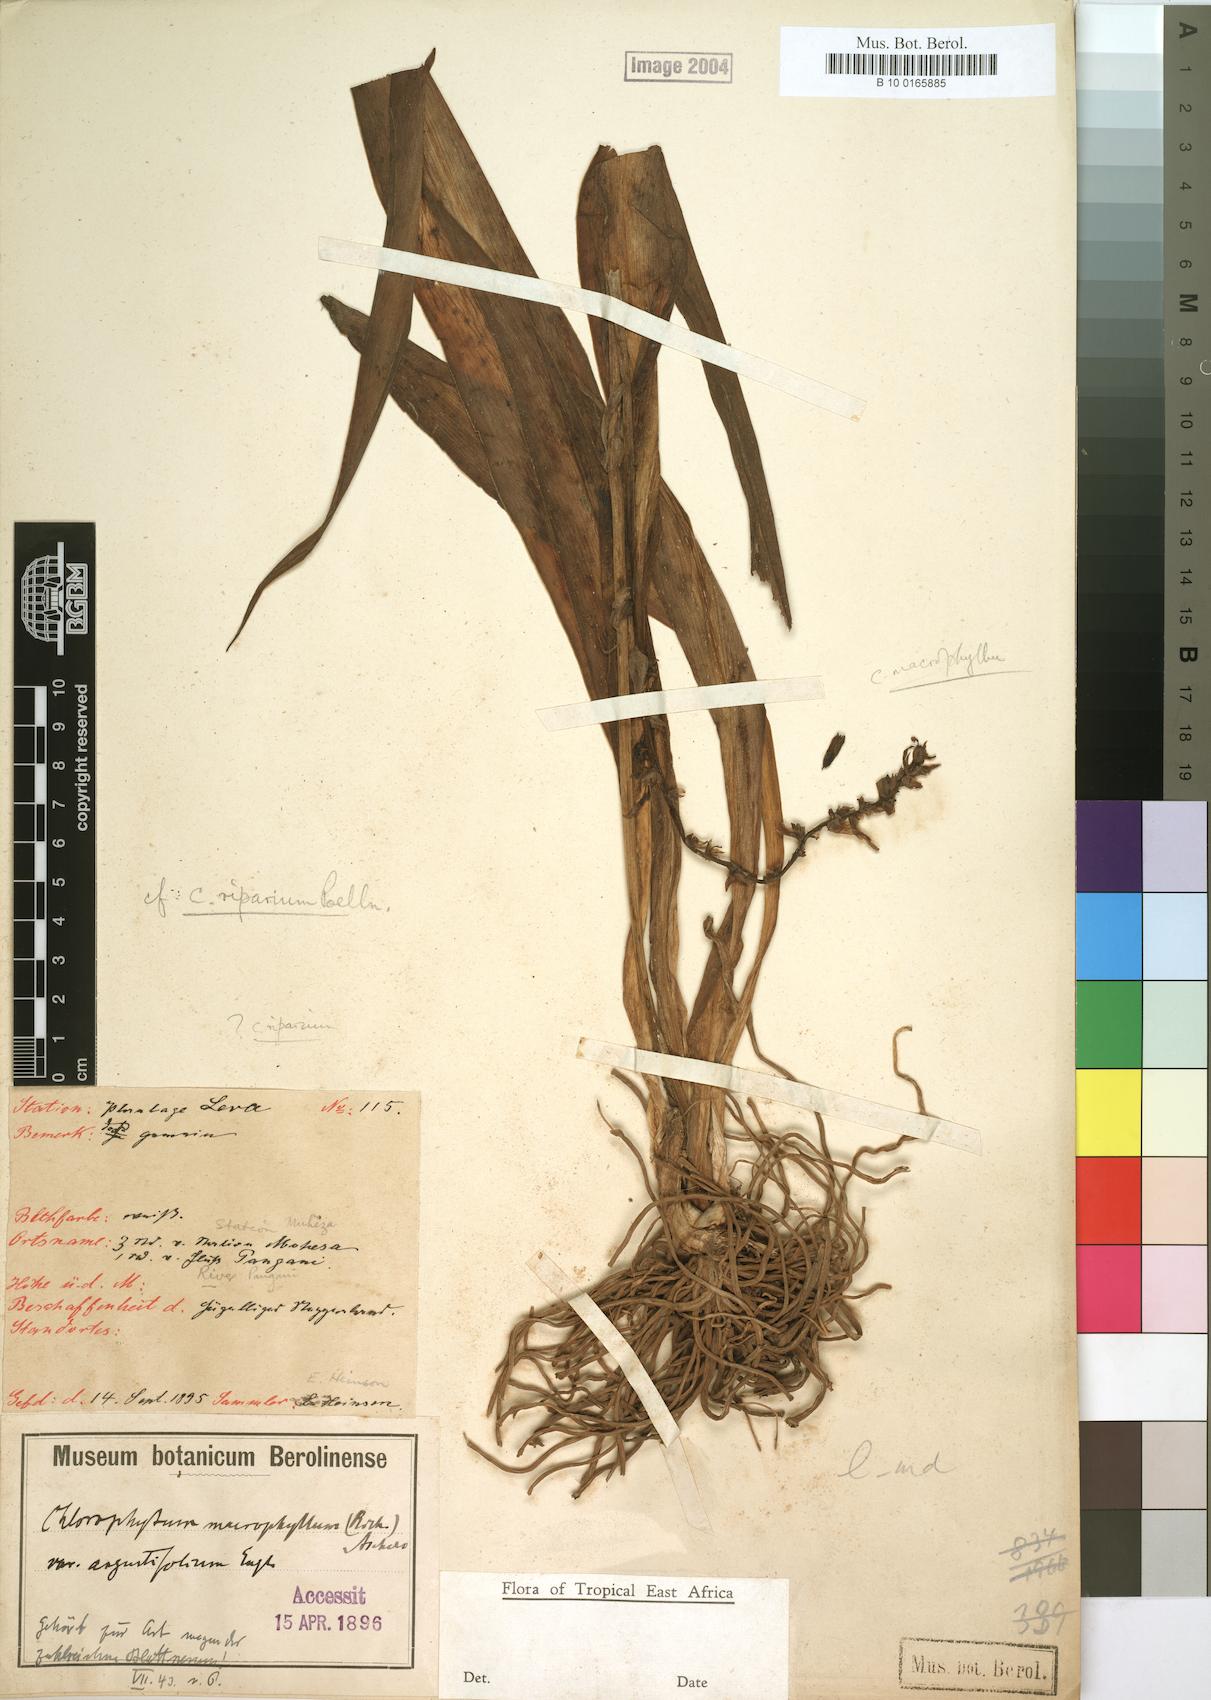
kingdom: Plantae
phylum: Tracheophyta
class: Liliopsida
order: Asparagales
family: Asparagaceae
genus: Chlorophytum
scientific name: Chlorophytum macrophyllum
